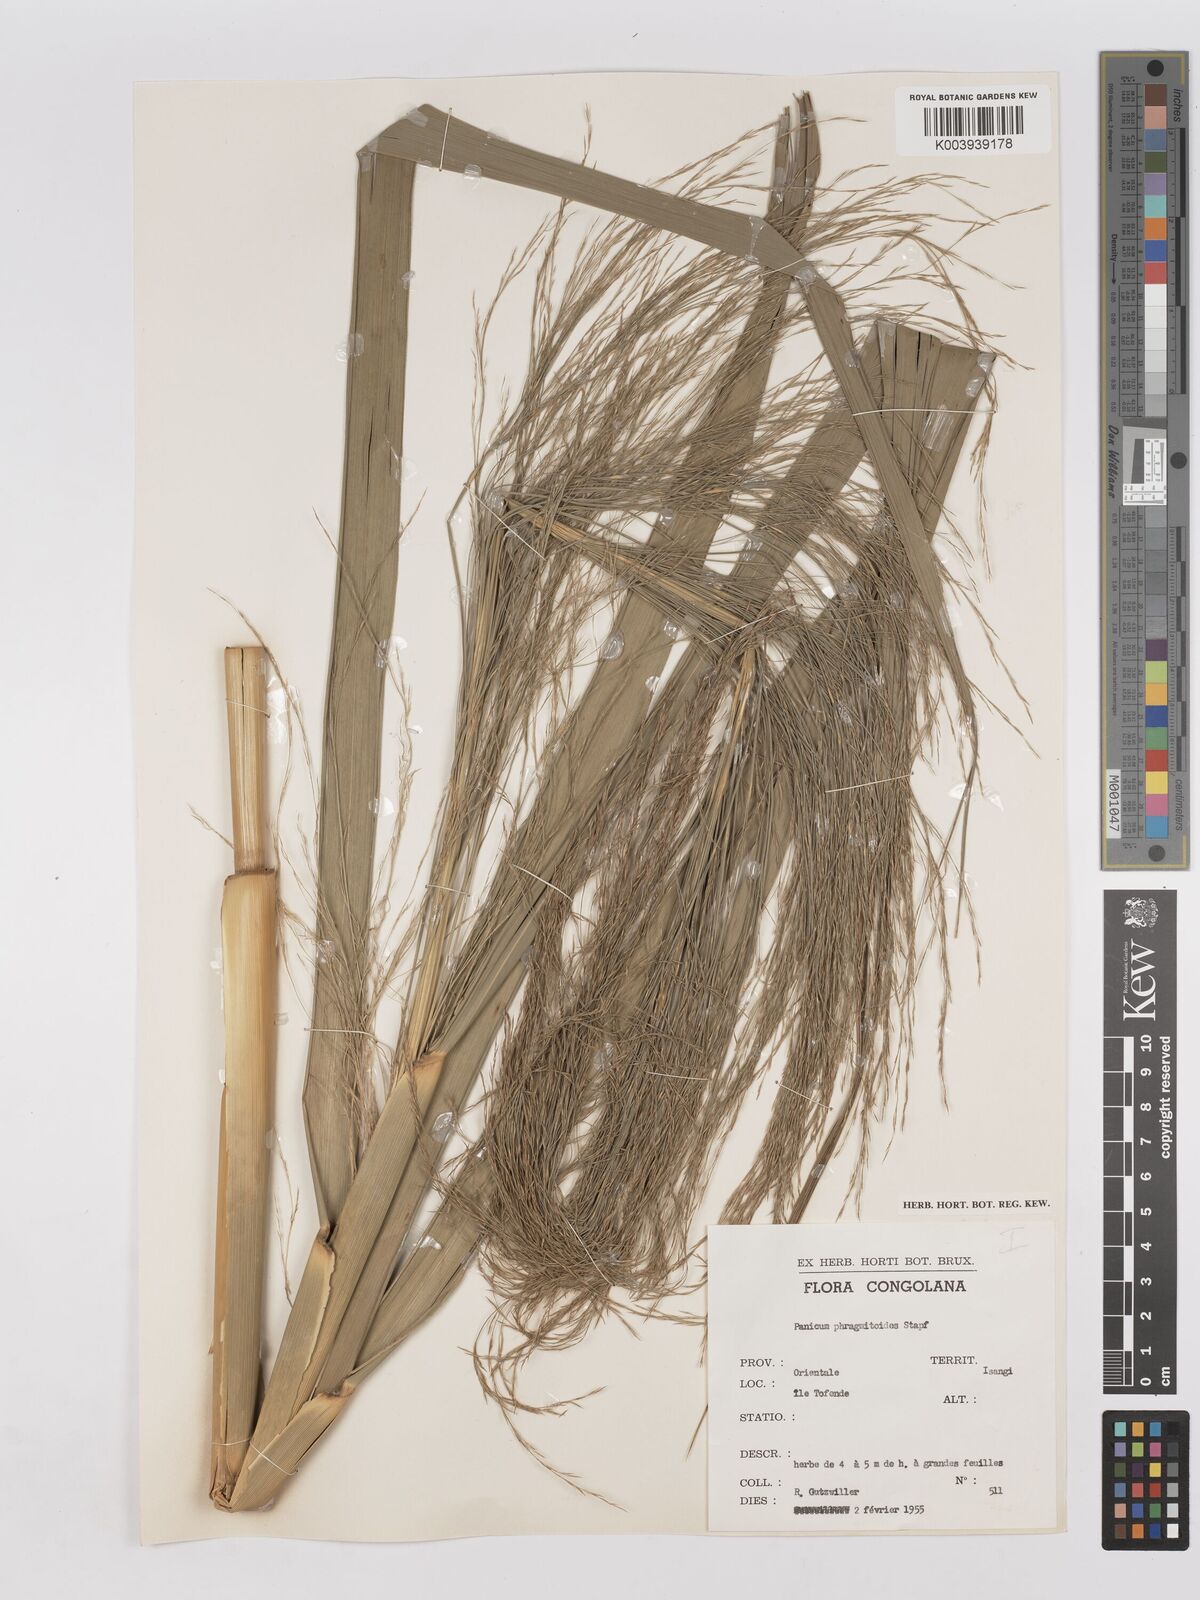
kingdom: Plantae
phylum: Tracheophyta
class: Liliopsida
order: Poales
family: Poaceae
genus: Phragmites
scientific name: Phragmites mauritianus
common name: Reed grass
